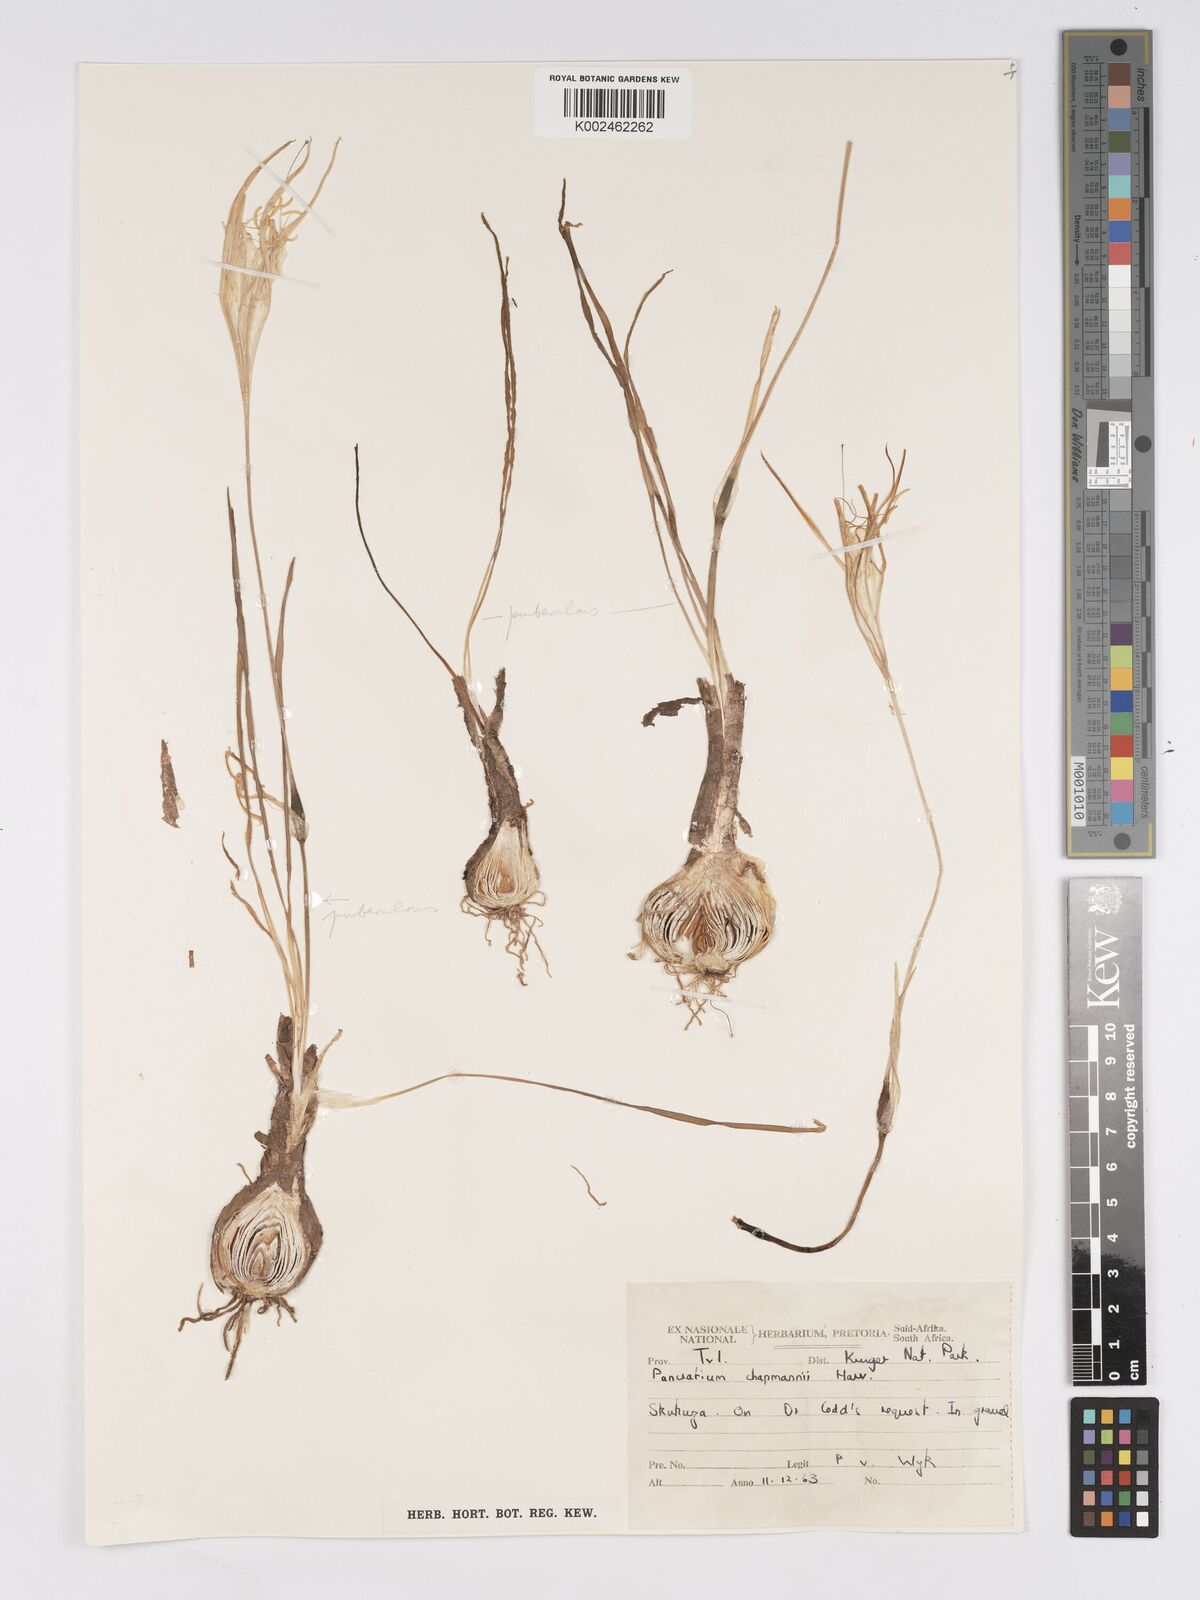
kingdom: Plantae
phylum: Tracheophyta
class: Liliopsida
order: Asparagales
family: Amaryllidaceae
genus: Pancratium
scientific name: Pancratium tenuifolium
